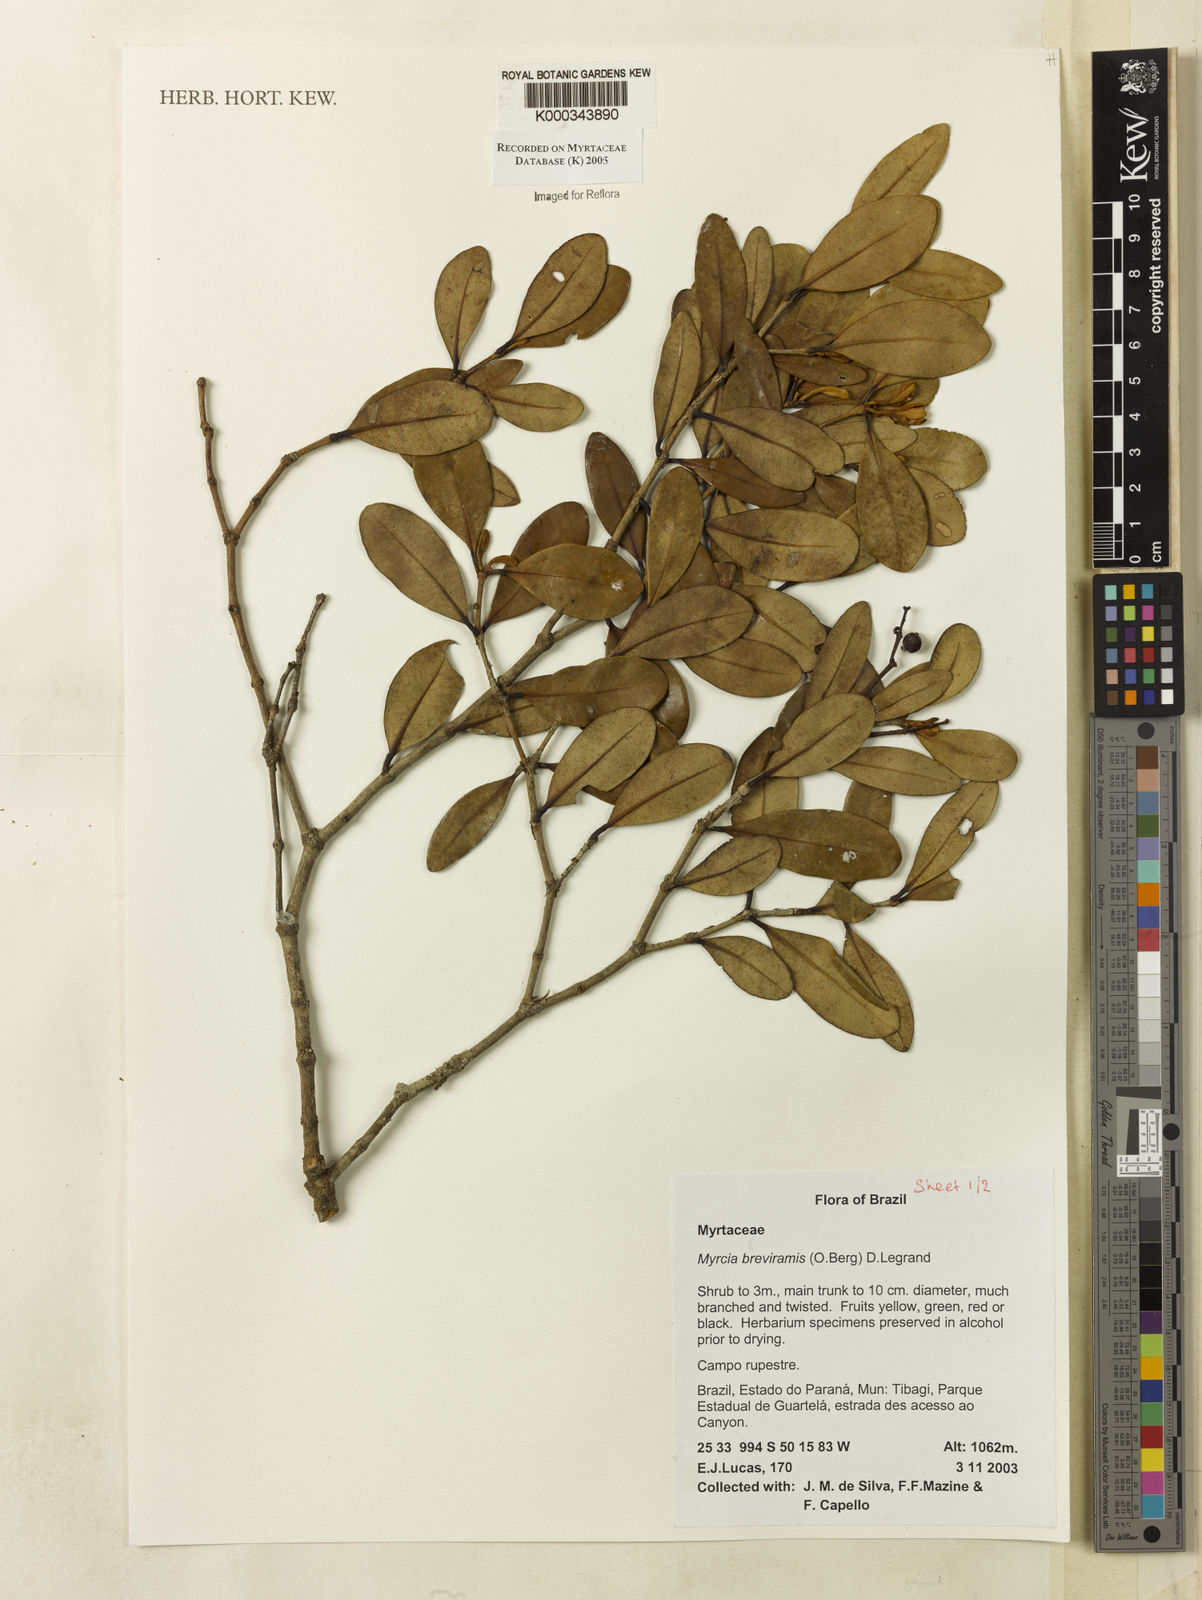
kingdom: Plantae
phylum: Tracheophyta
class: Magnoliopsida
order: Myrtales
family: Myrtaceae
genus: Myrcia
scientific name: Myrcia pulchra
